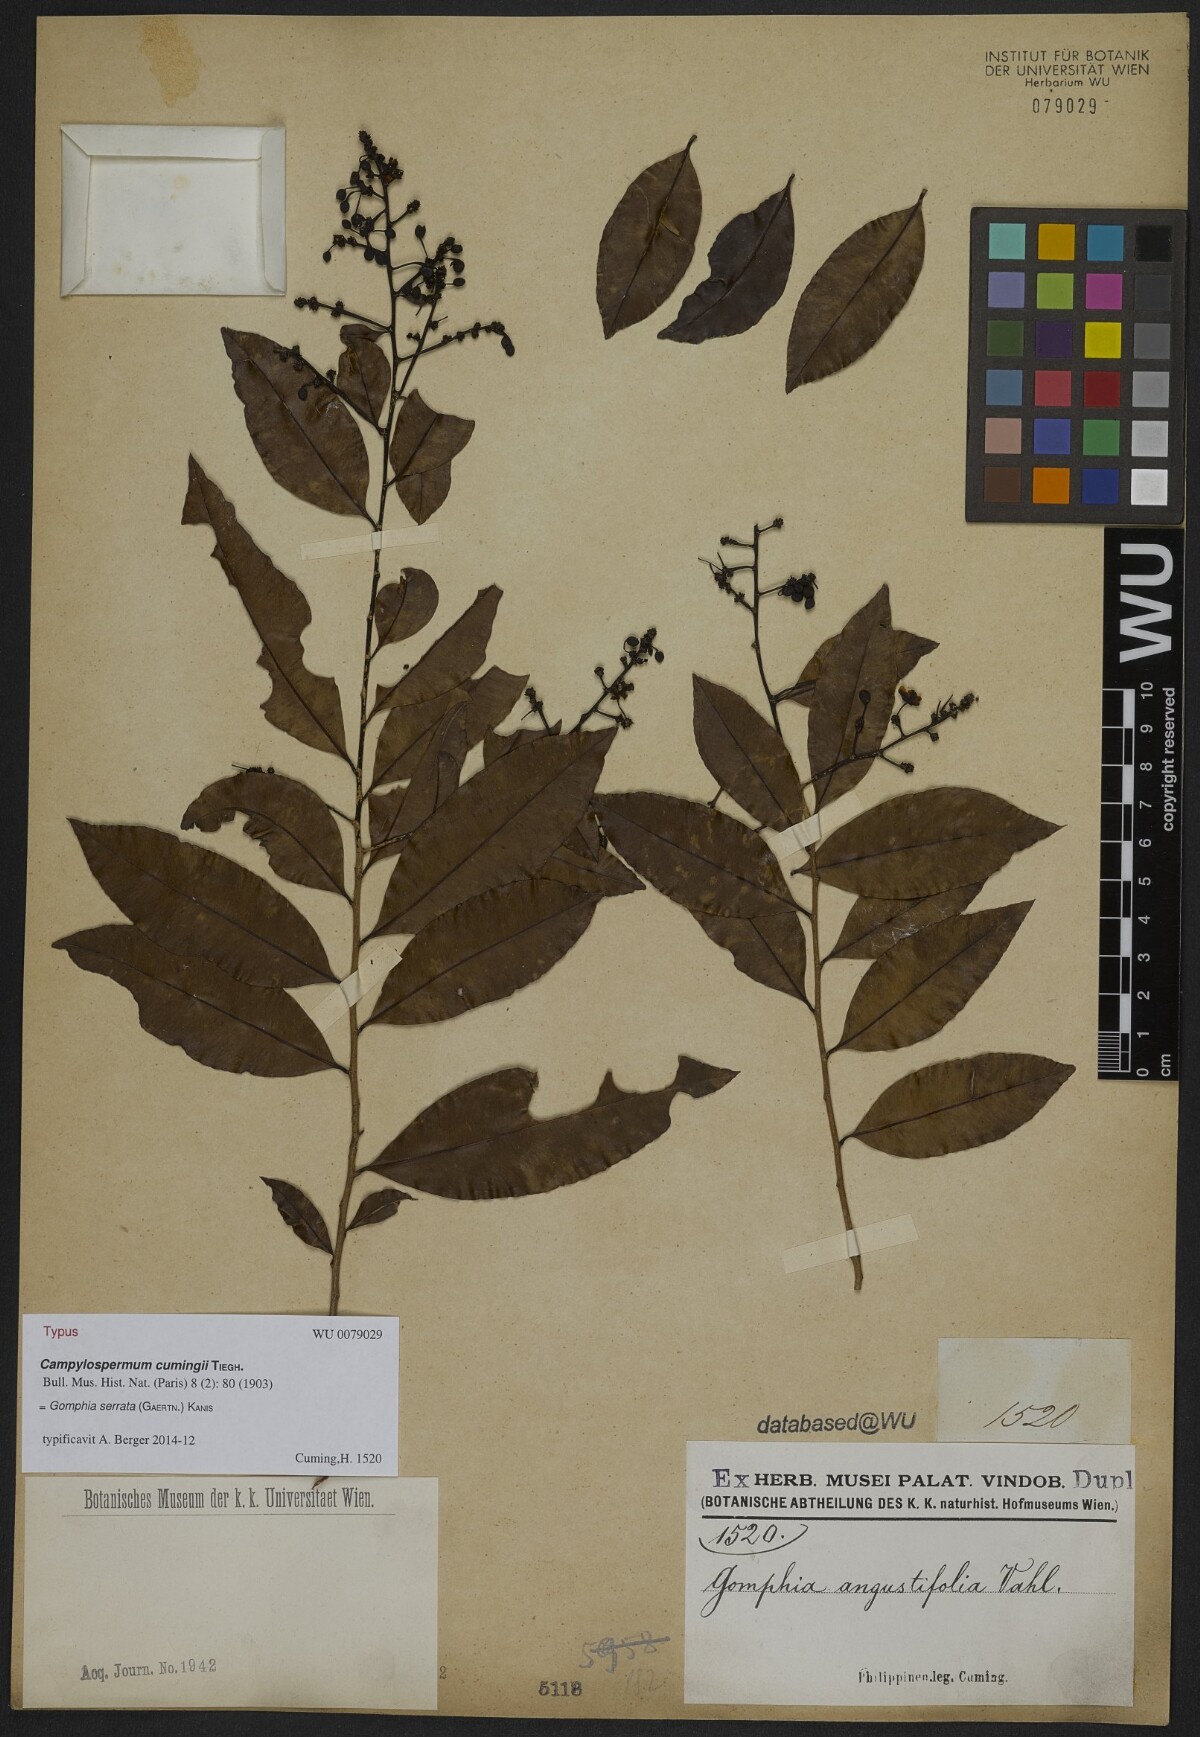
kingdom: Plantae
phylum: Tracheophyta
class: Magnoliopsida
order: Malpighiales
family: Ochnaceae
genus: Gomphia
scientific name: Gomphia serrata
